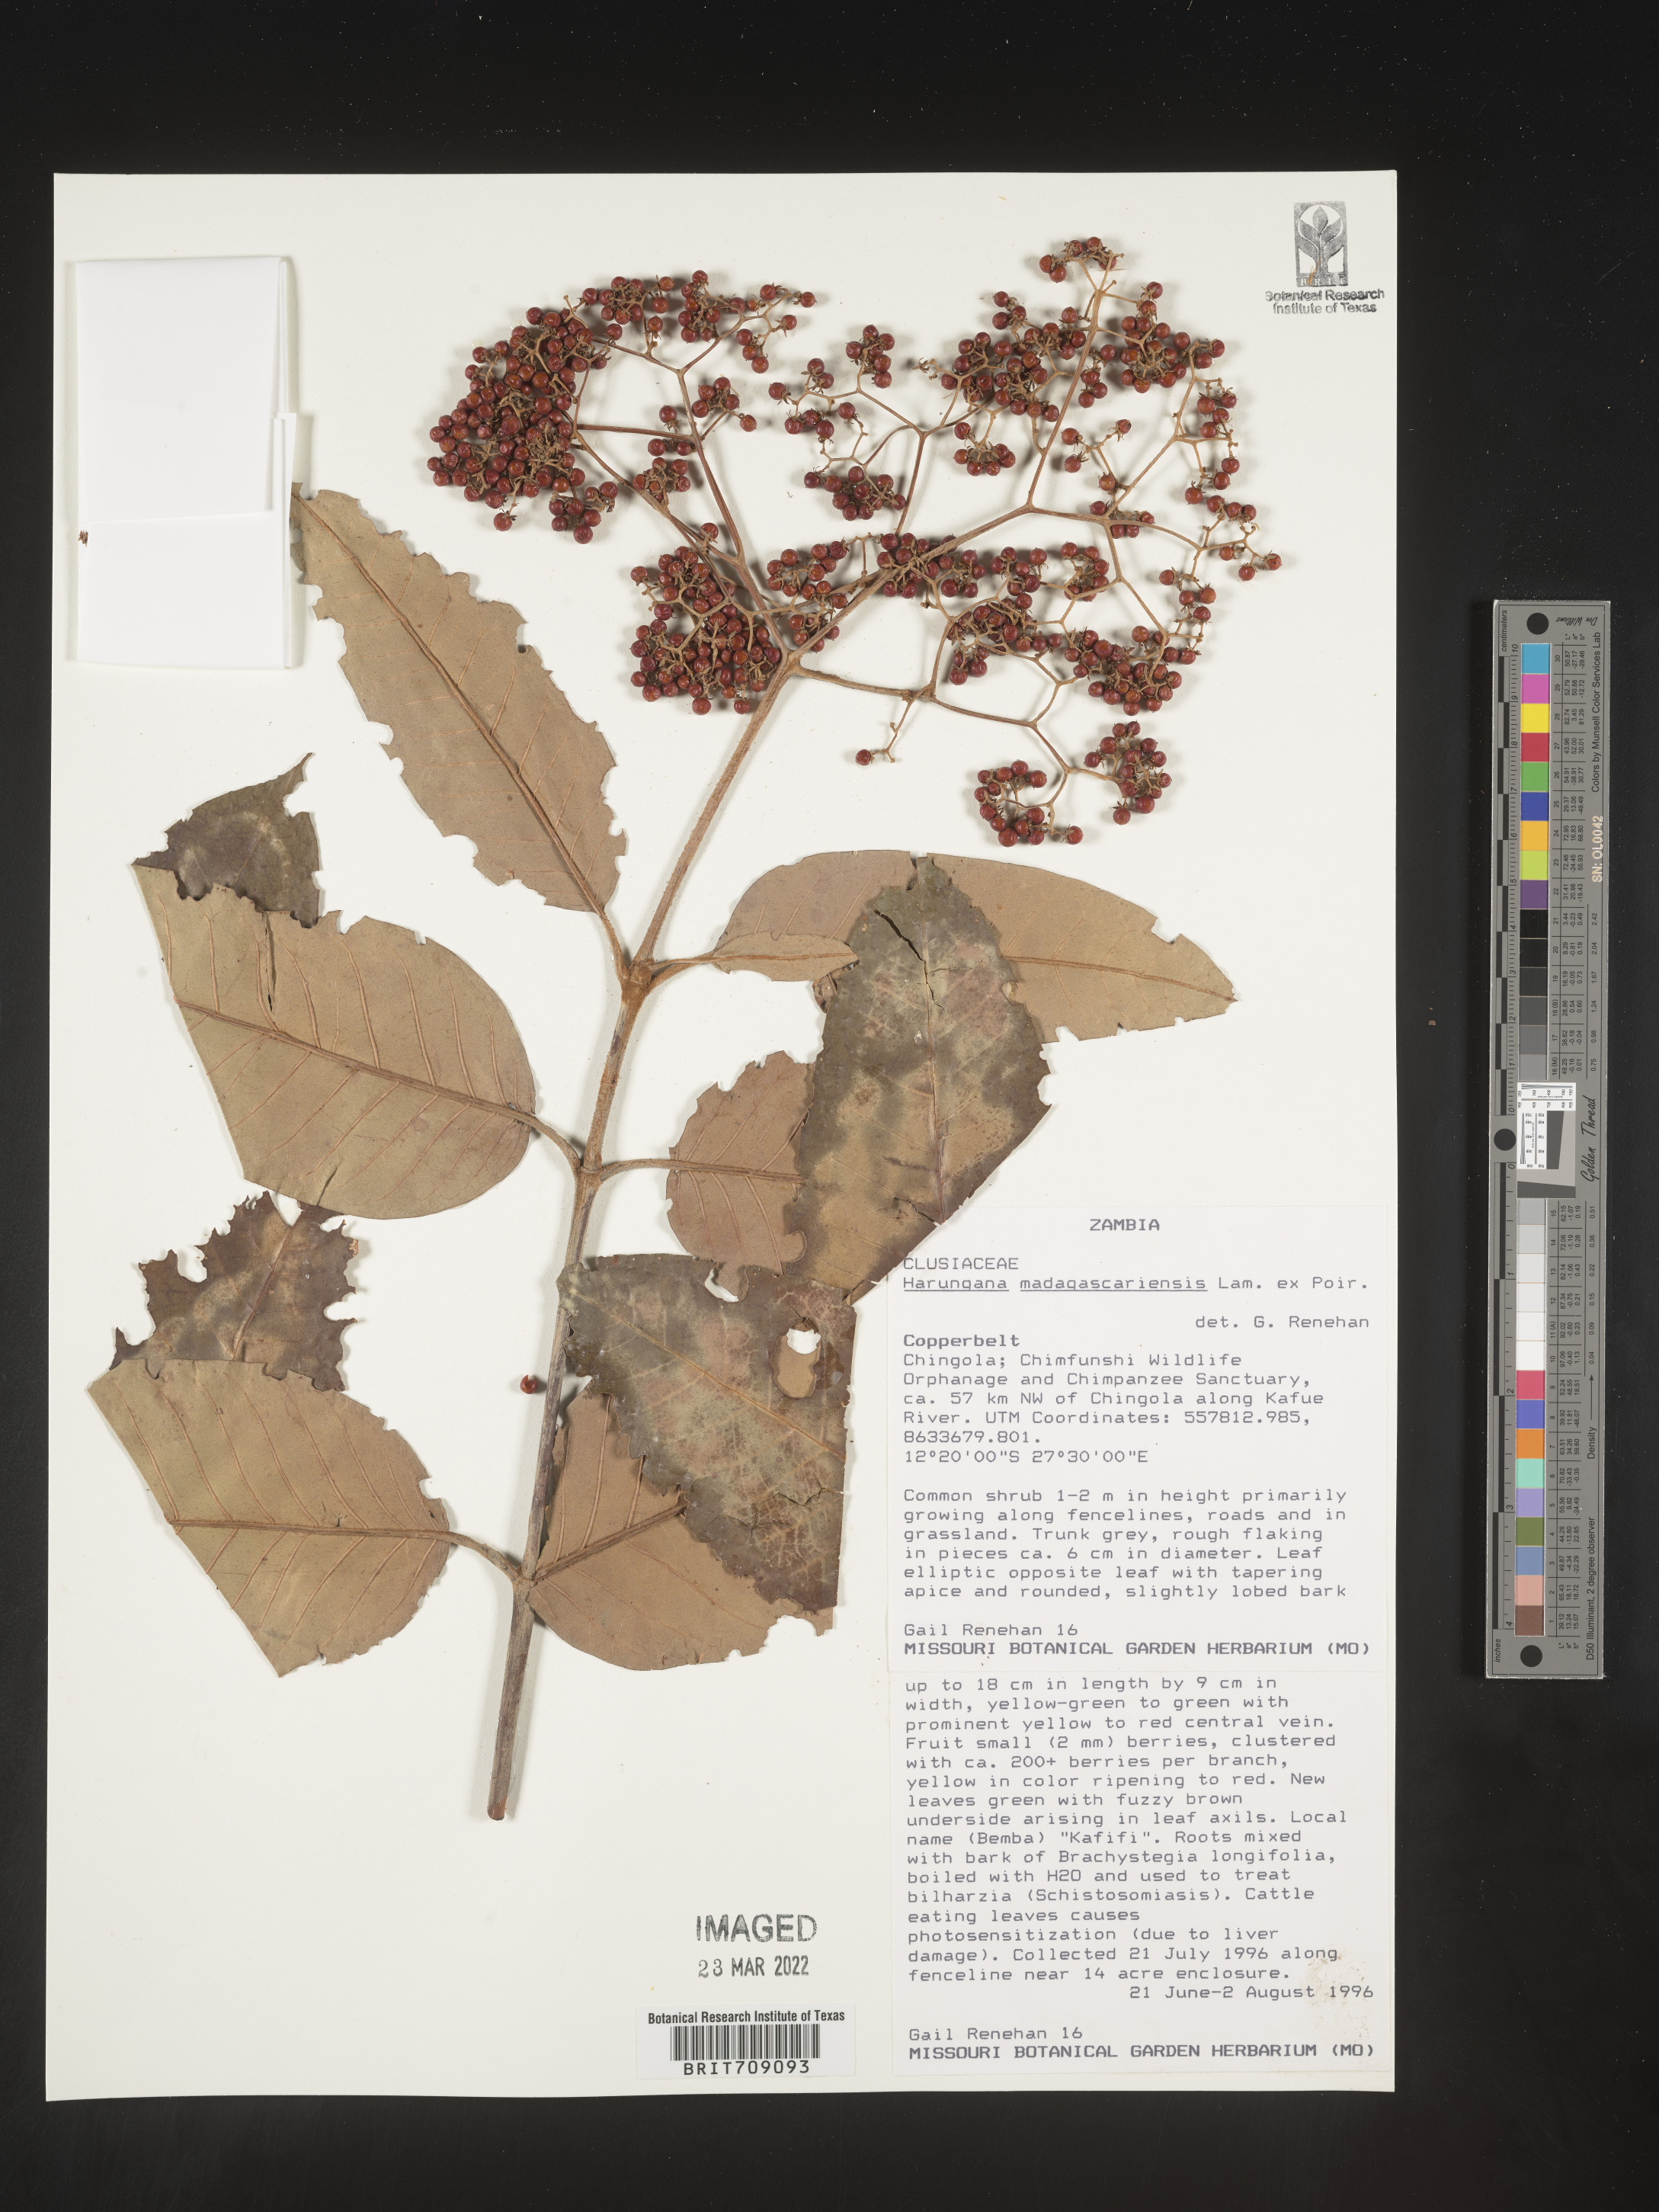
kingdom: Plantae
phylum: Tracheophyta
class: Magnoliopsida
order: Malpighiales
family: Hypericaceae
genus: Harungana
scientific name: Harungana
